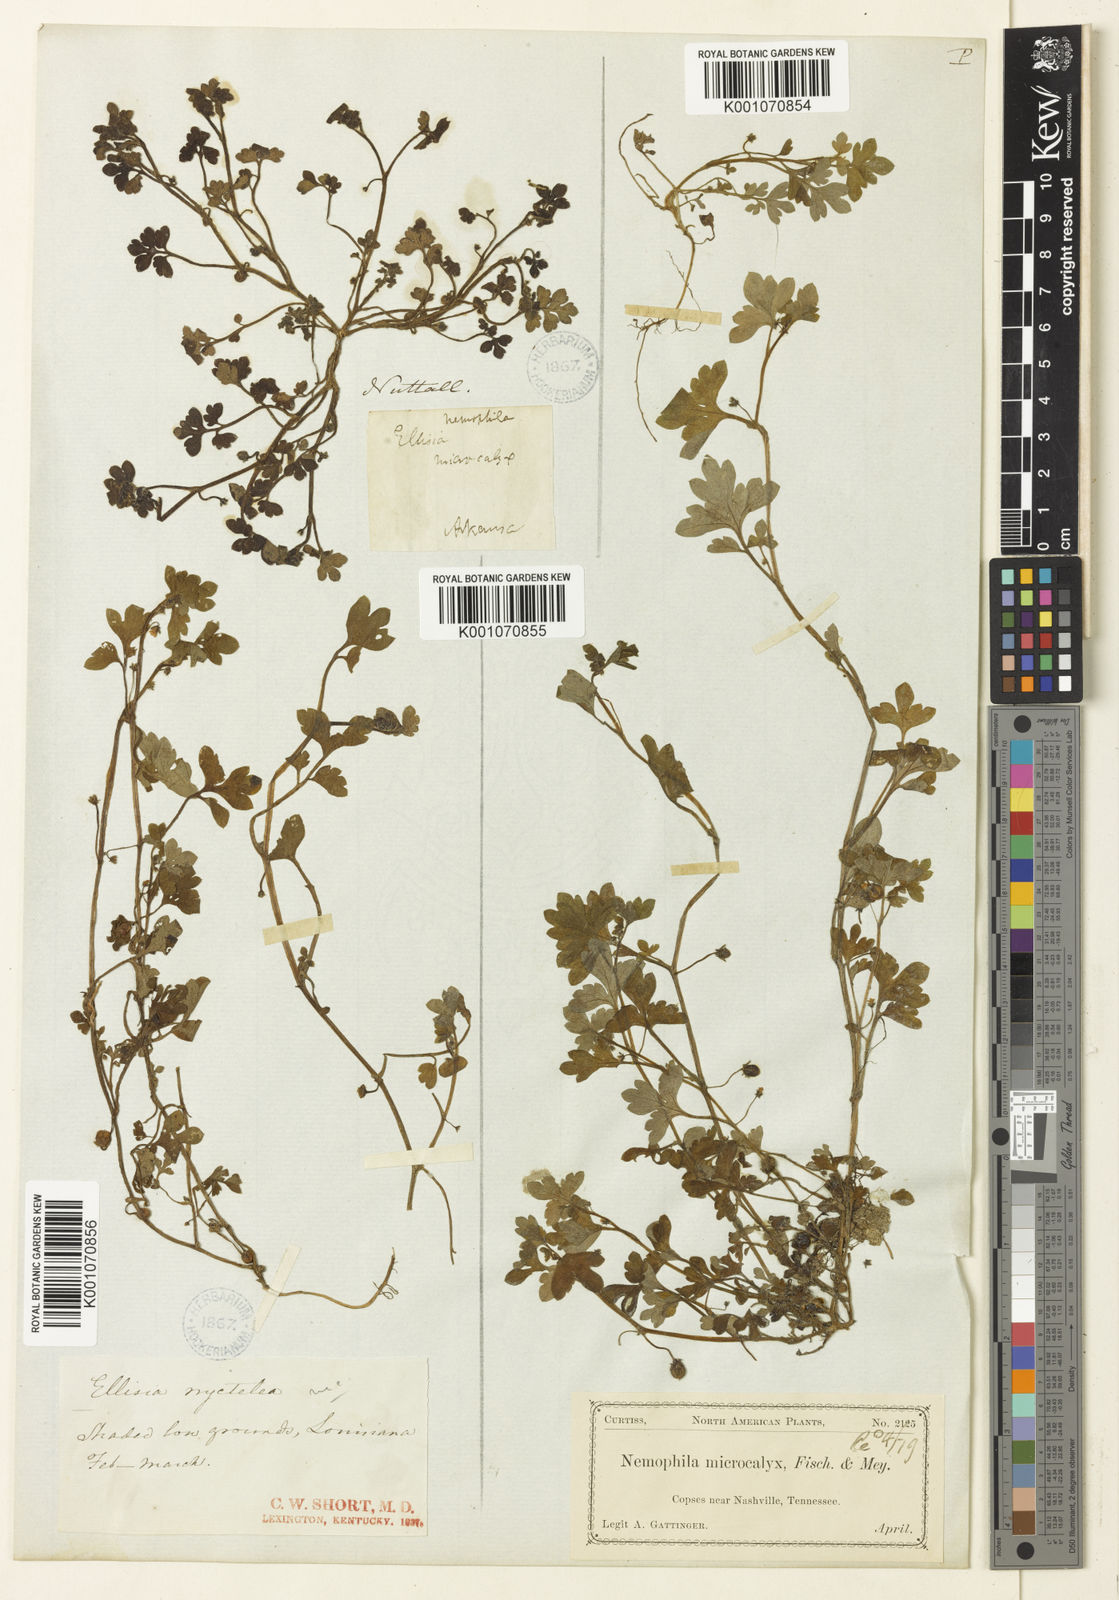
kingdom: Plantae
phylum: Tracheophyta
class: Magnoliopsida
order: Boraginales
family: Hydrophyllaceae
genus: Nemophila
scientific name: Nemophila aphylla
